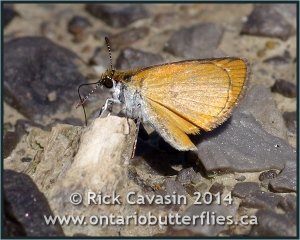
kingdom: Animalia
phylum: Arthropoda
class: Insecta
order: Lepidoptera
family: Hesperiidae
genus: Ancyloxypha
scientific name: Ancyloxypha numitor
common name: Least Skipper
